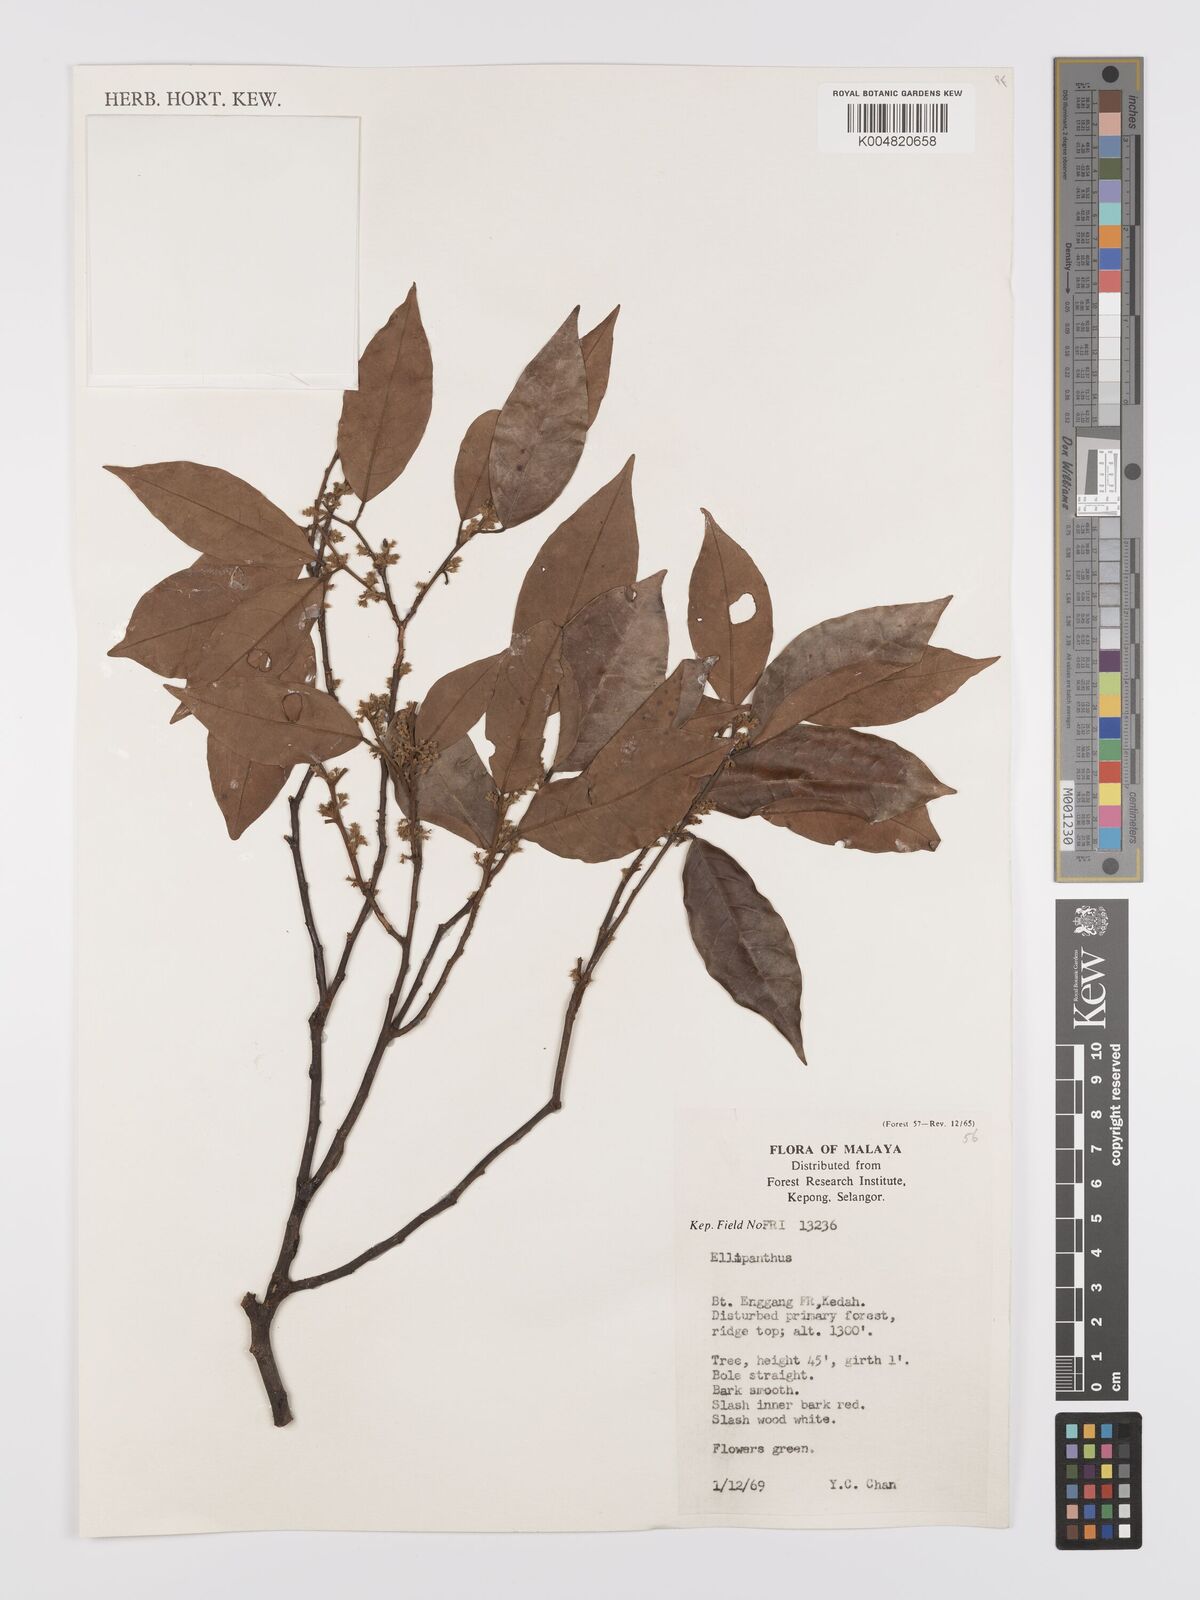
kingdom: Plantae
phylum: Tracheophyta
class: Magnoliopsida
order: Oxalidales
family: Connaraceae
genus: Ellipanthus
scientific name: Ellipanthus
